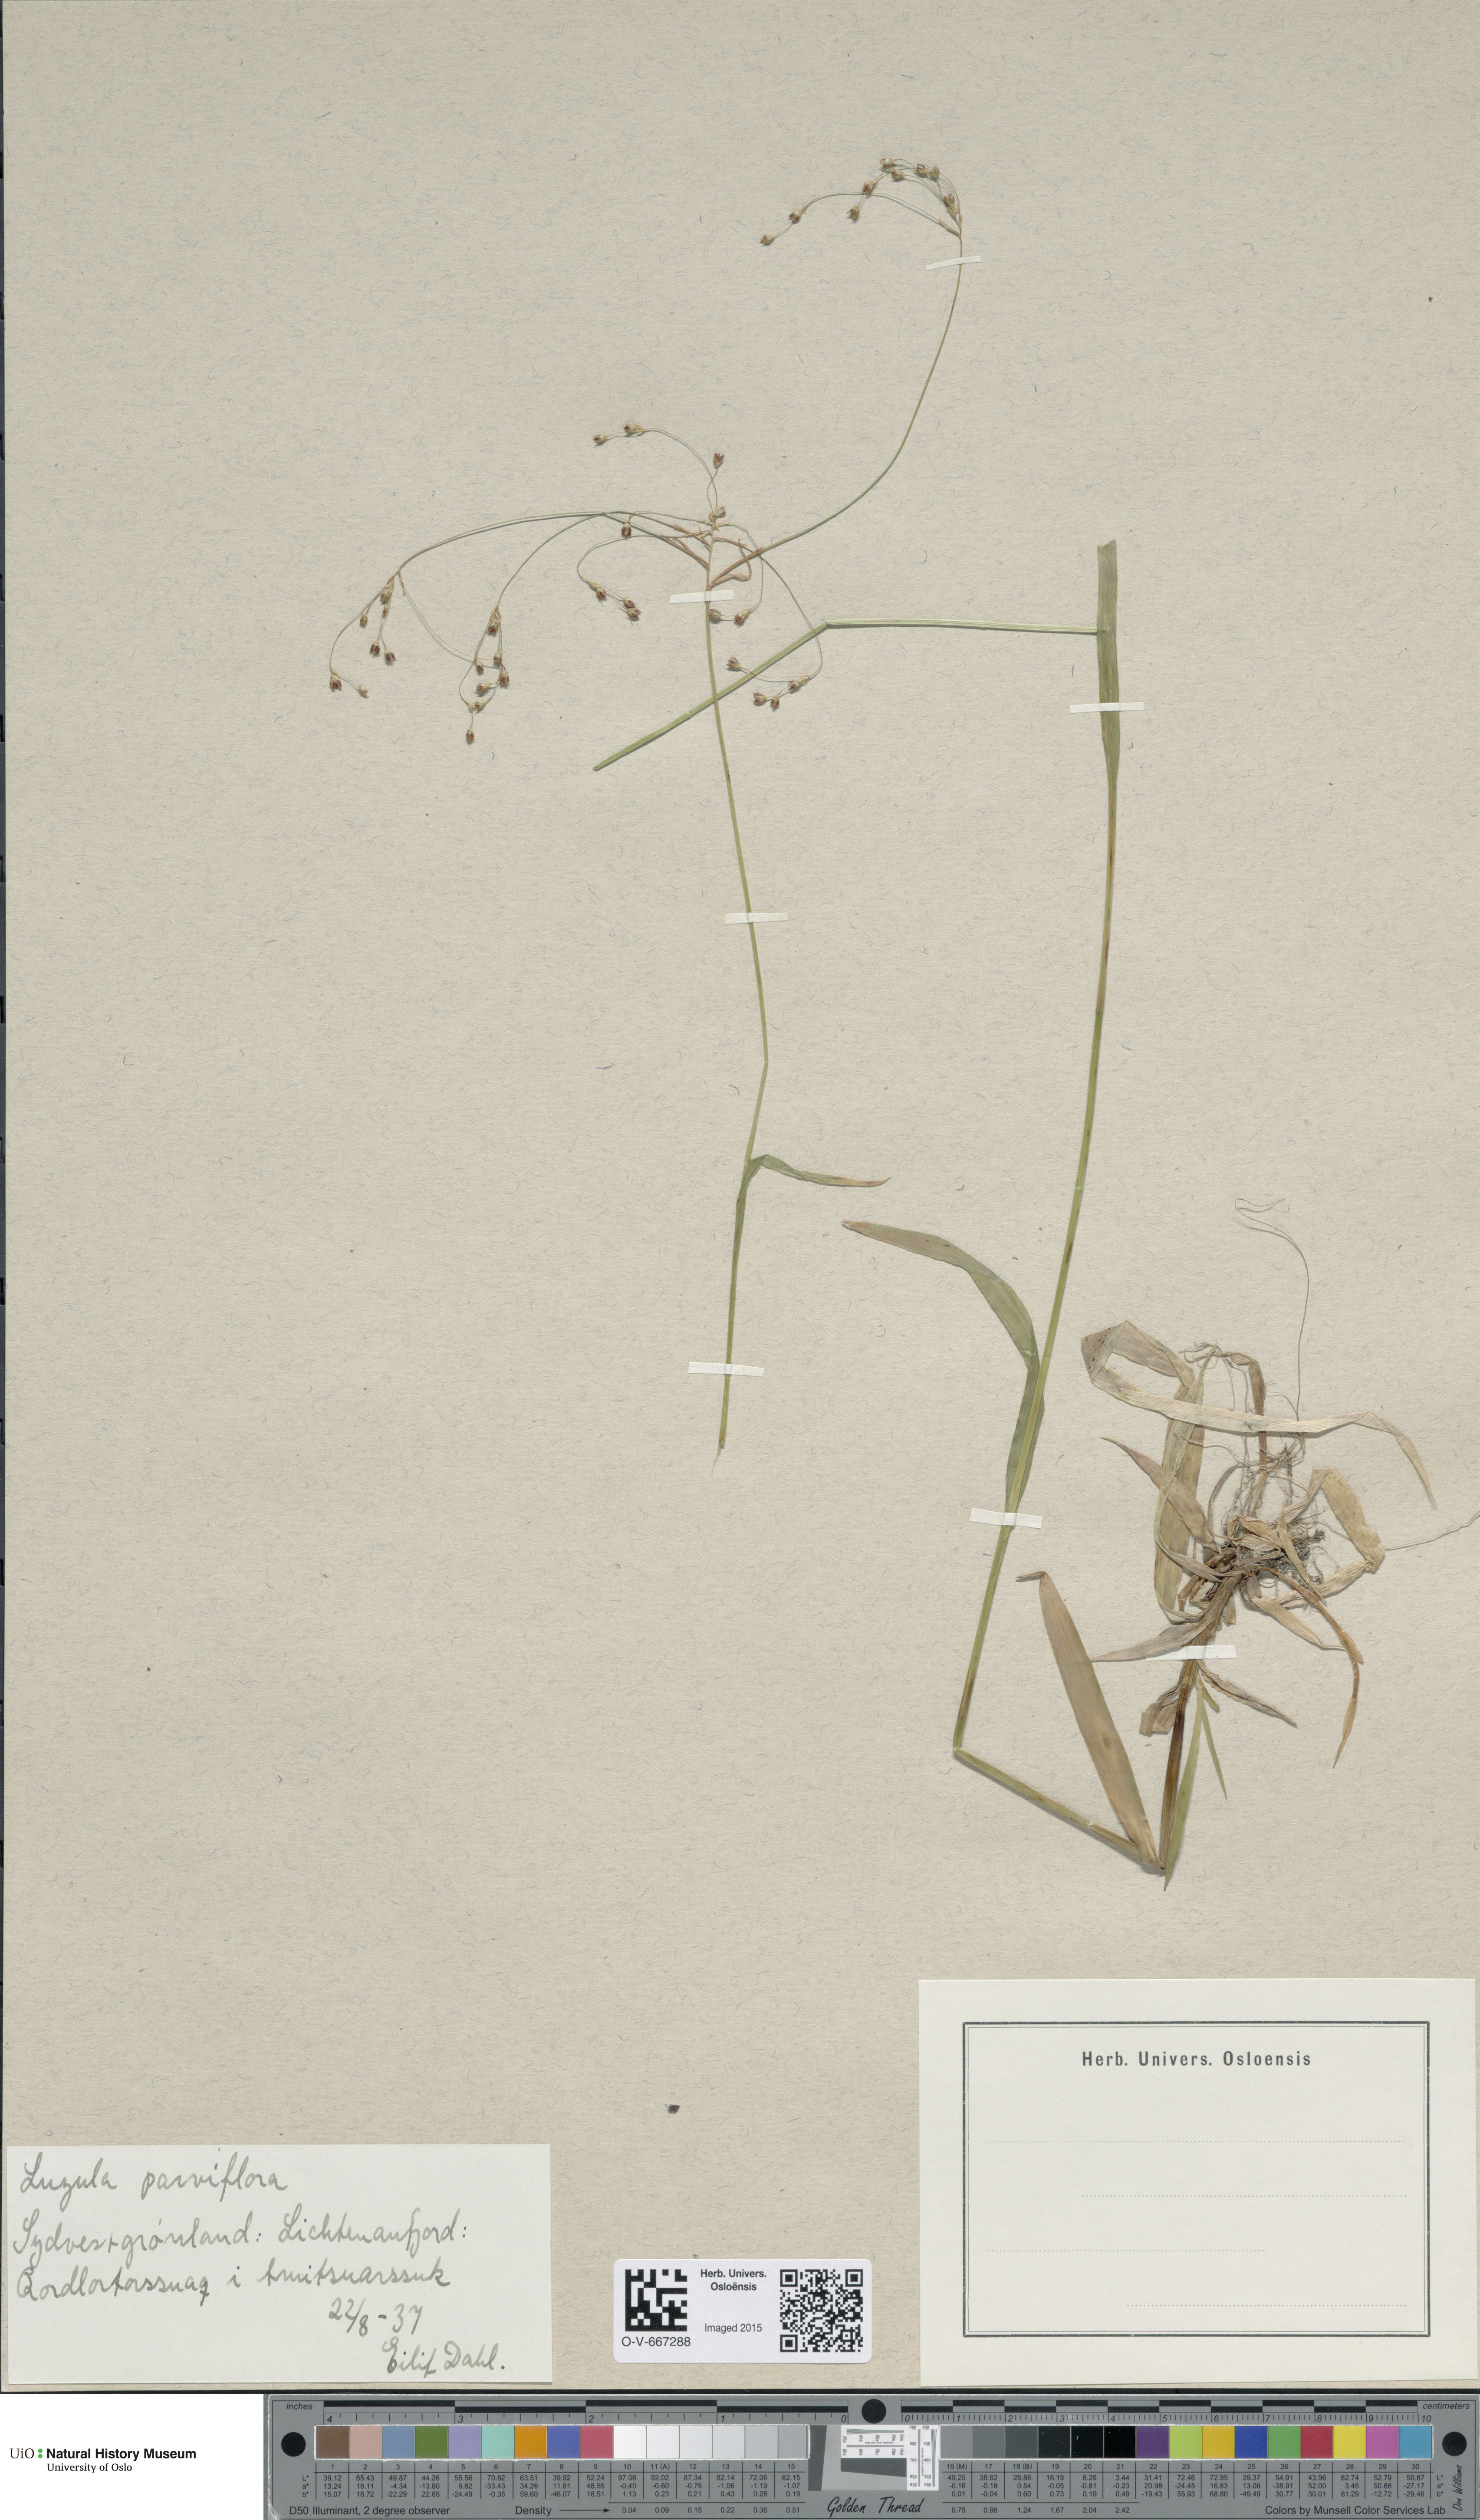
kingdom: Plantae
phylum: Tracheophyta
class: Liliopsida
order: Poales
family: Juncaceae
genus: Luzula
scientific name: Luzula parviflora
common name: Millet woodrush
